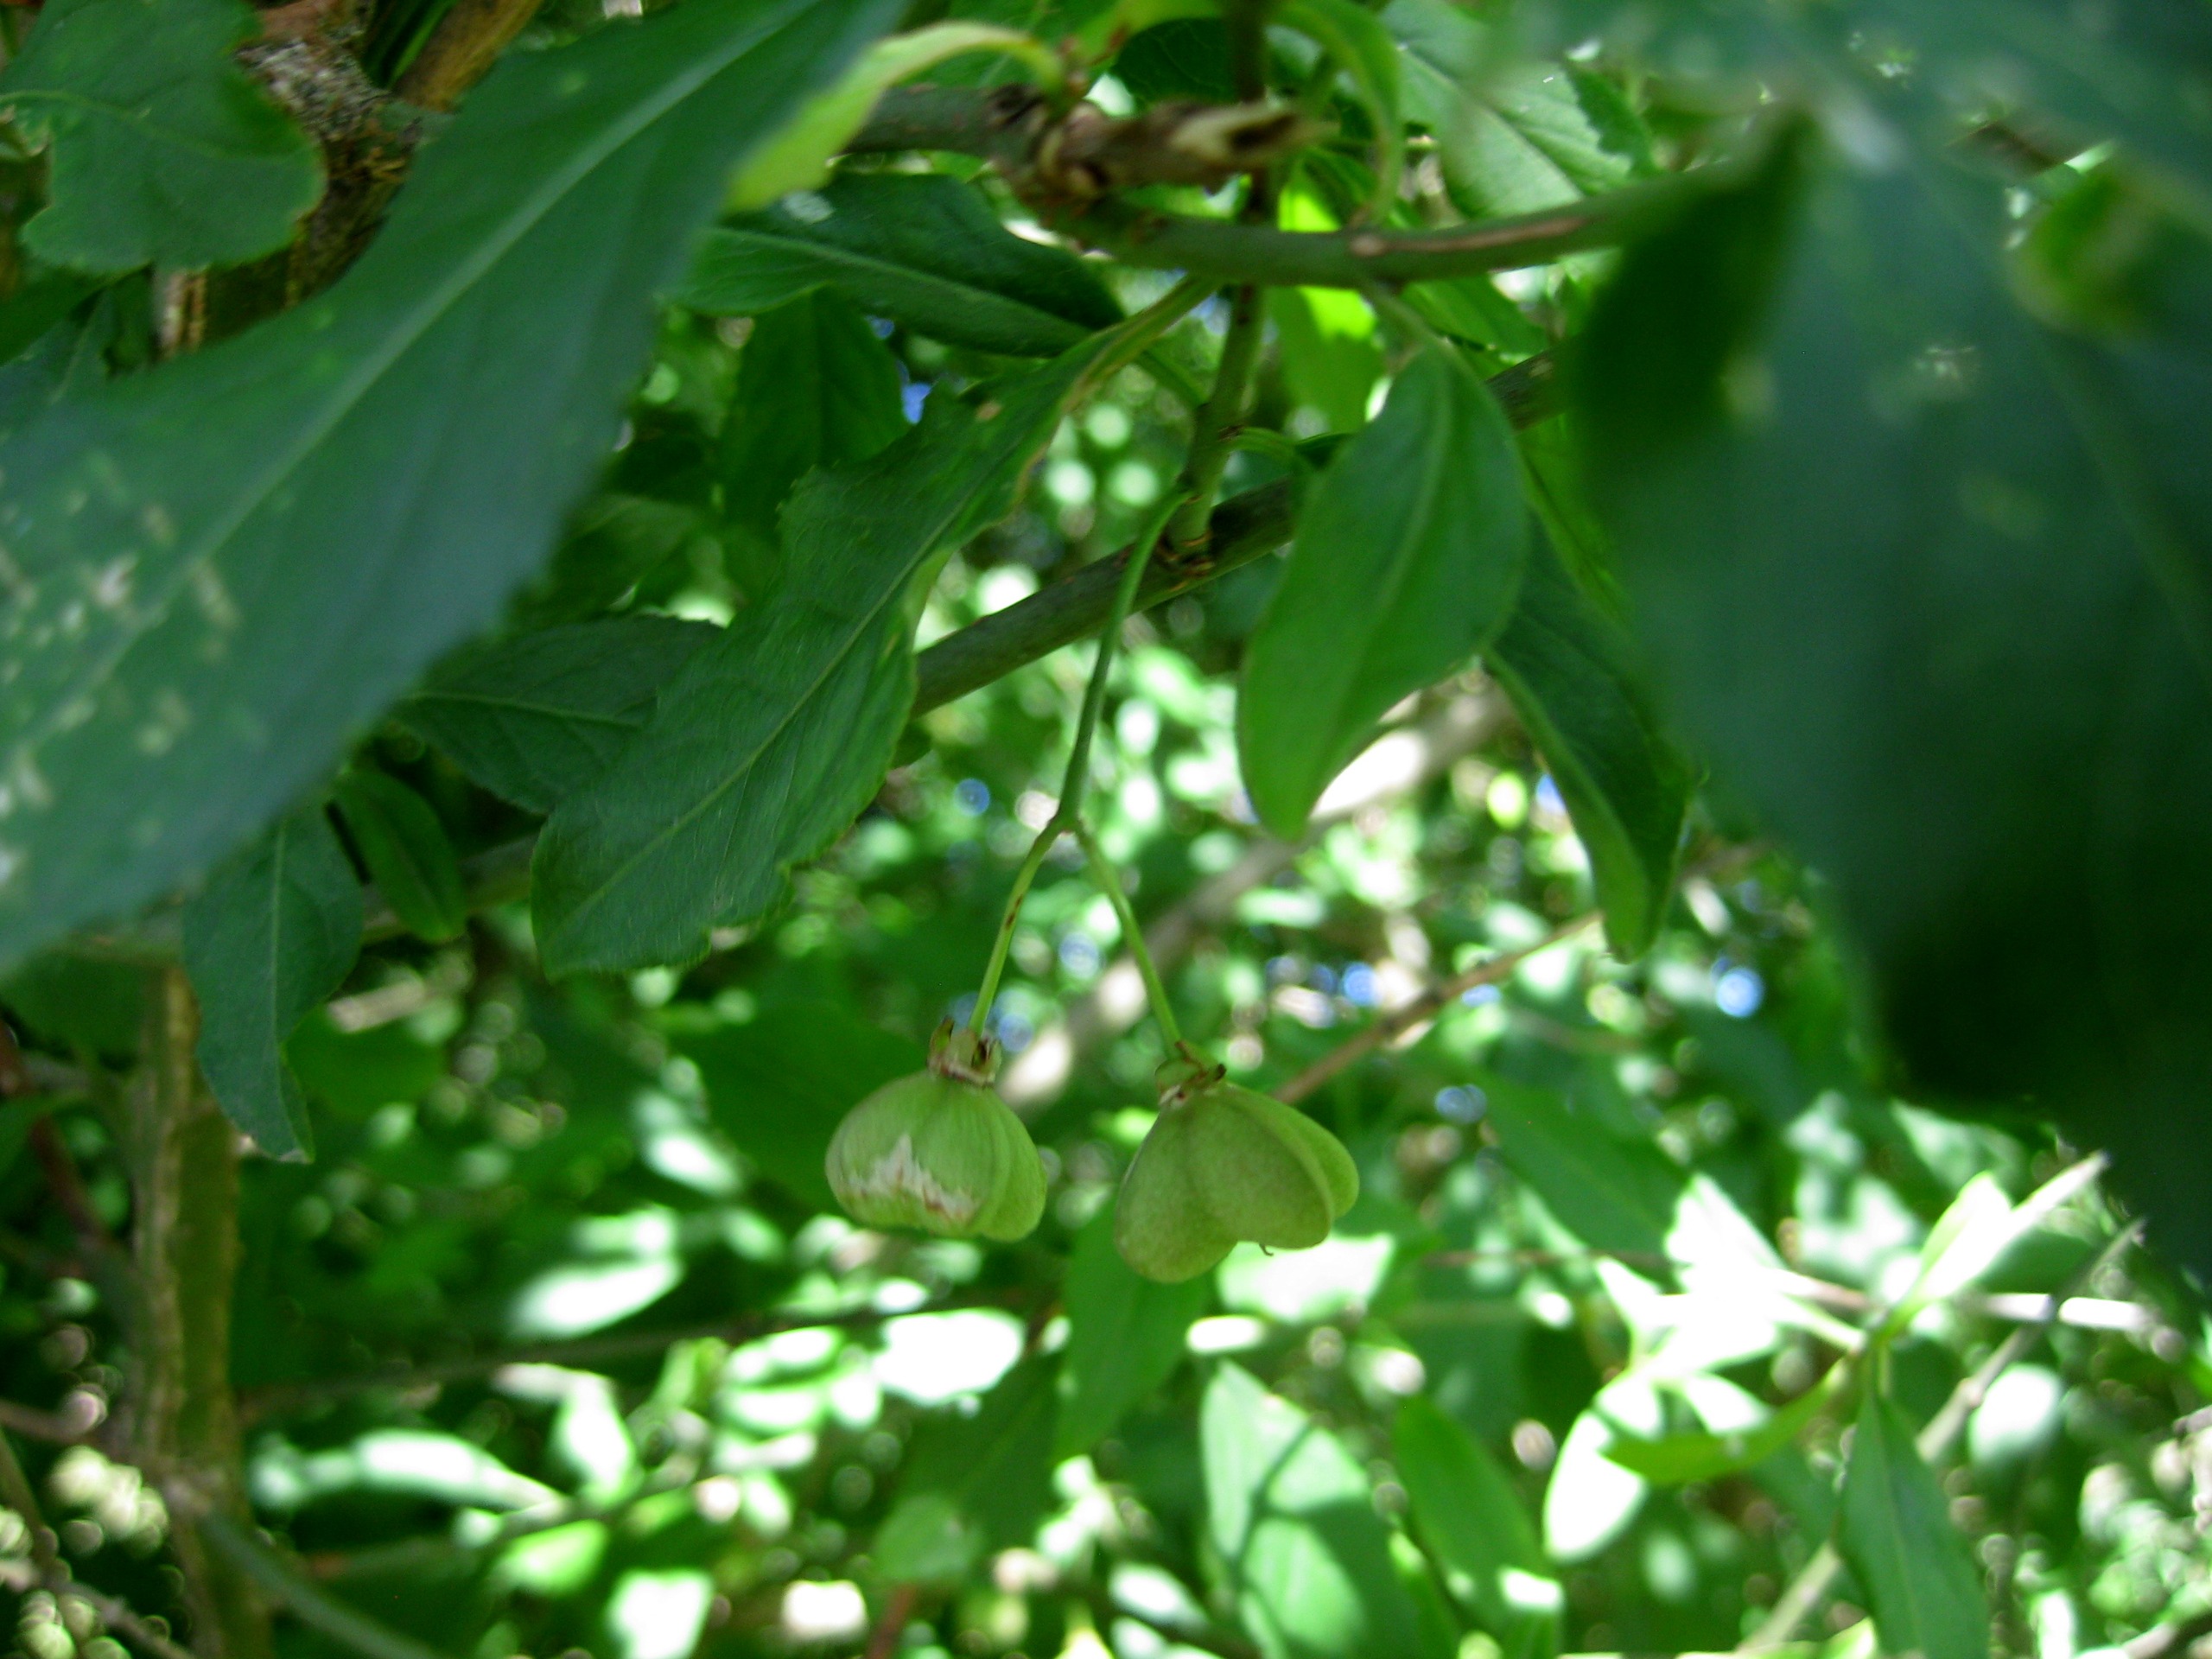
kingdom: Plantae
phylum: Tracheophyta
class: Magnoliopsida
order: Celastrales
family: Celastraceae
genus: Euonymus
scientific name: Euonymus europaeus
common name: Benved
